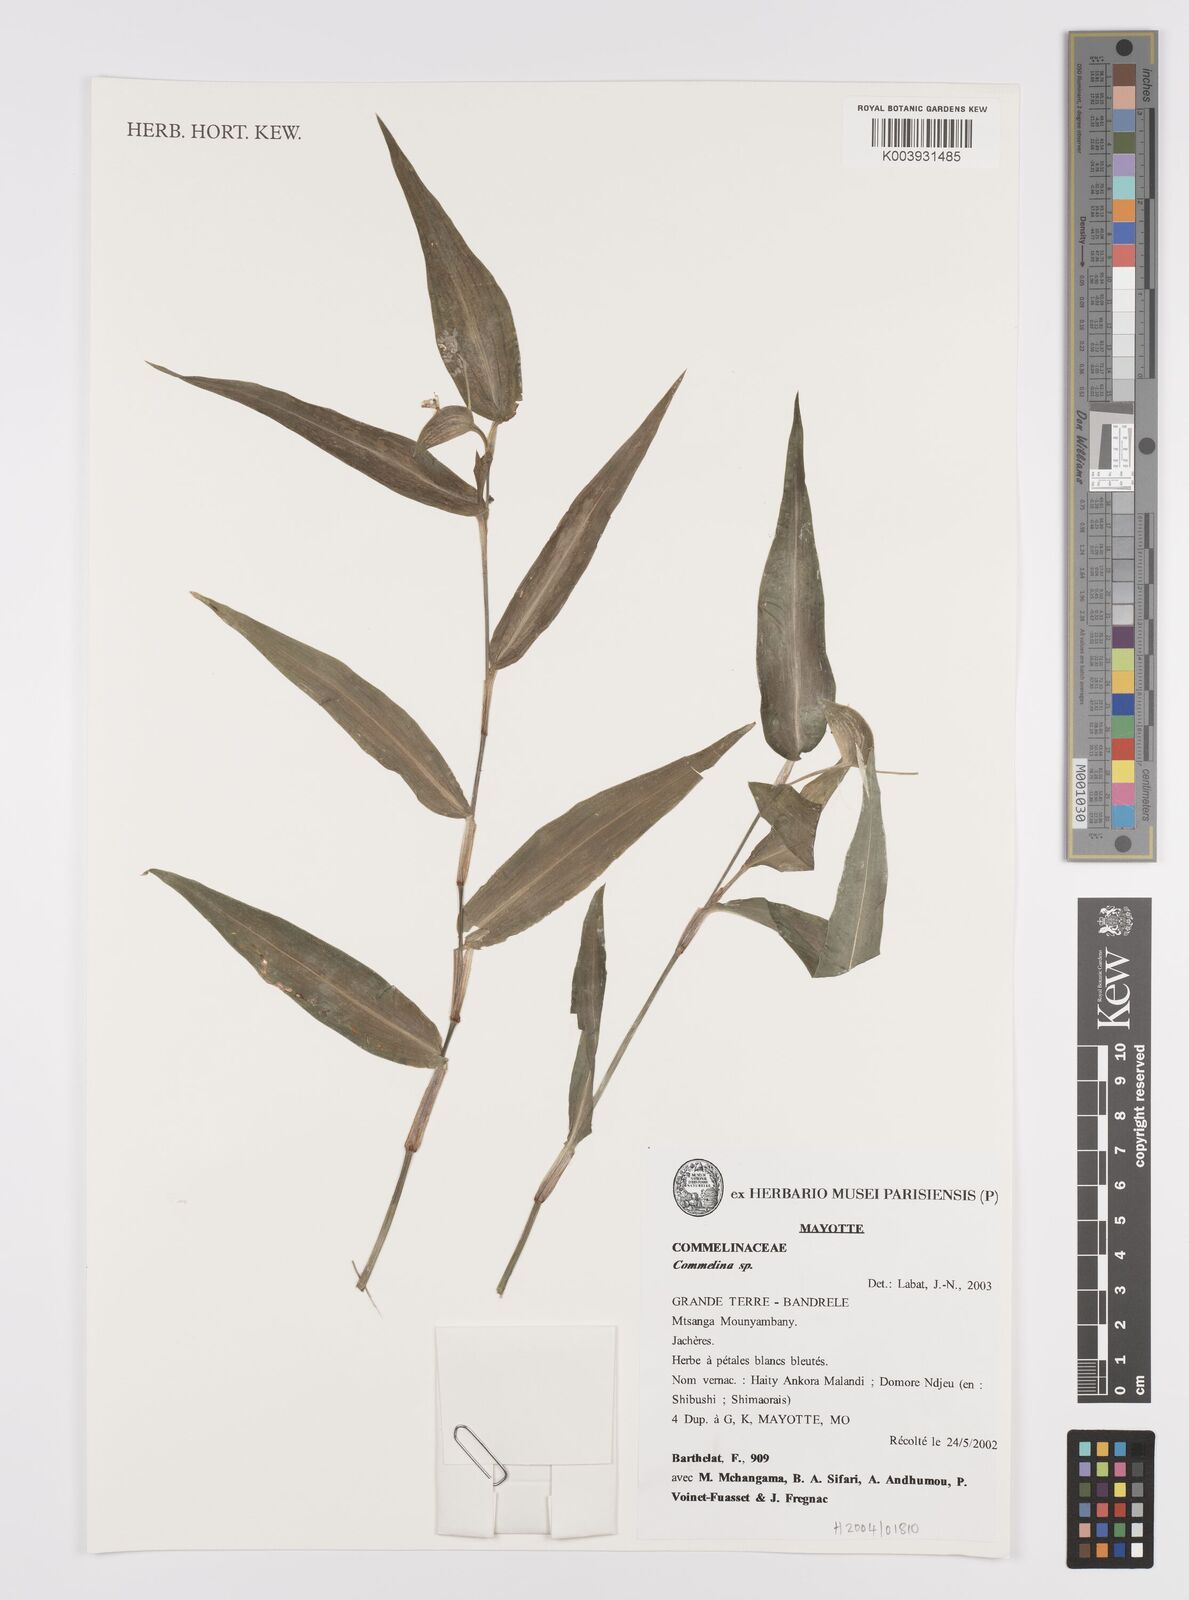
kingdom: Plantae
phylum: Tracheophyta
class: Liliopsida
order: Commelinales
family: Commelinaceae
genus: Commelina
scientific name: Commelina
